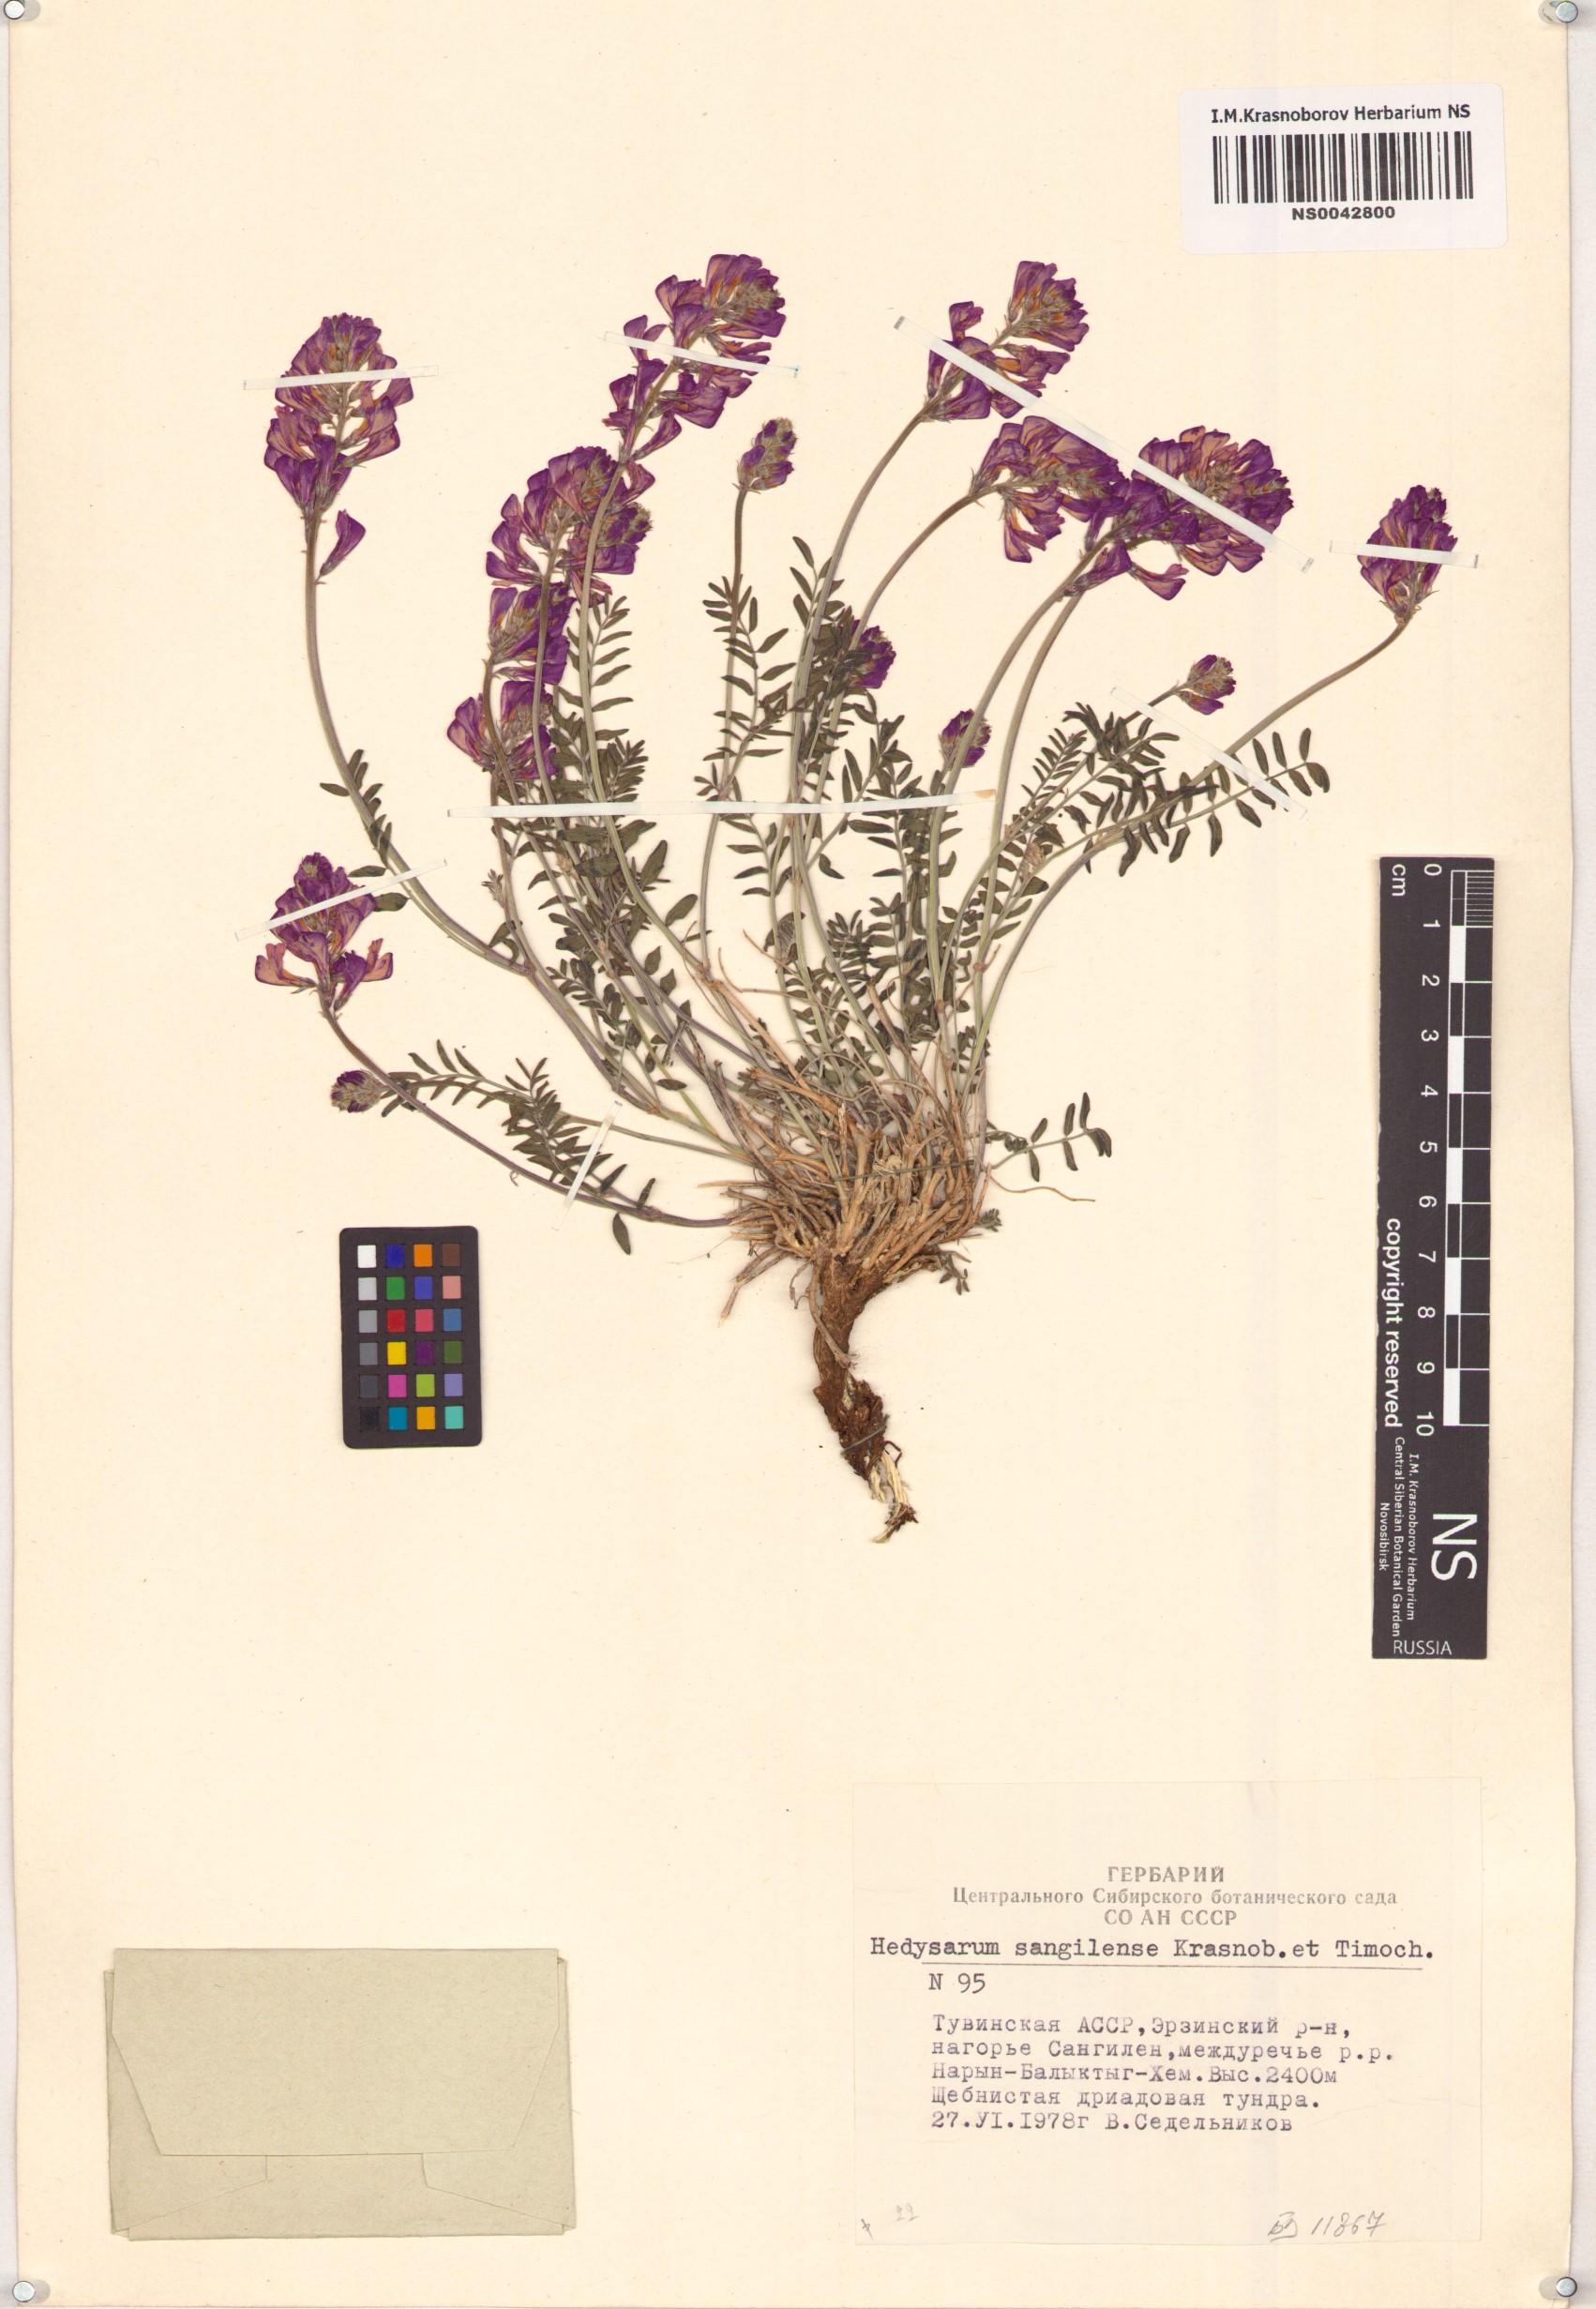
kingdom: Plantae
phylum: Tracheophyta
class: Magnoliopsida
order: Fabales
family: Fabaceae
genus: Hedysarum
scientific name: Hedysarum sangilense
